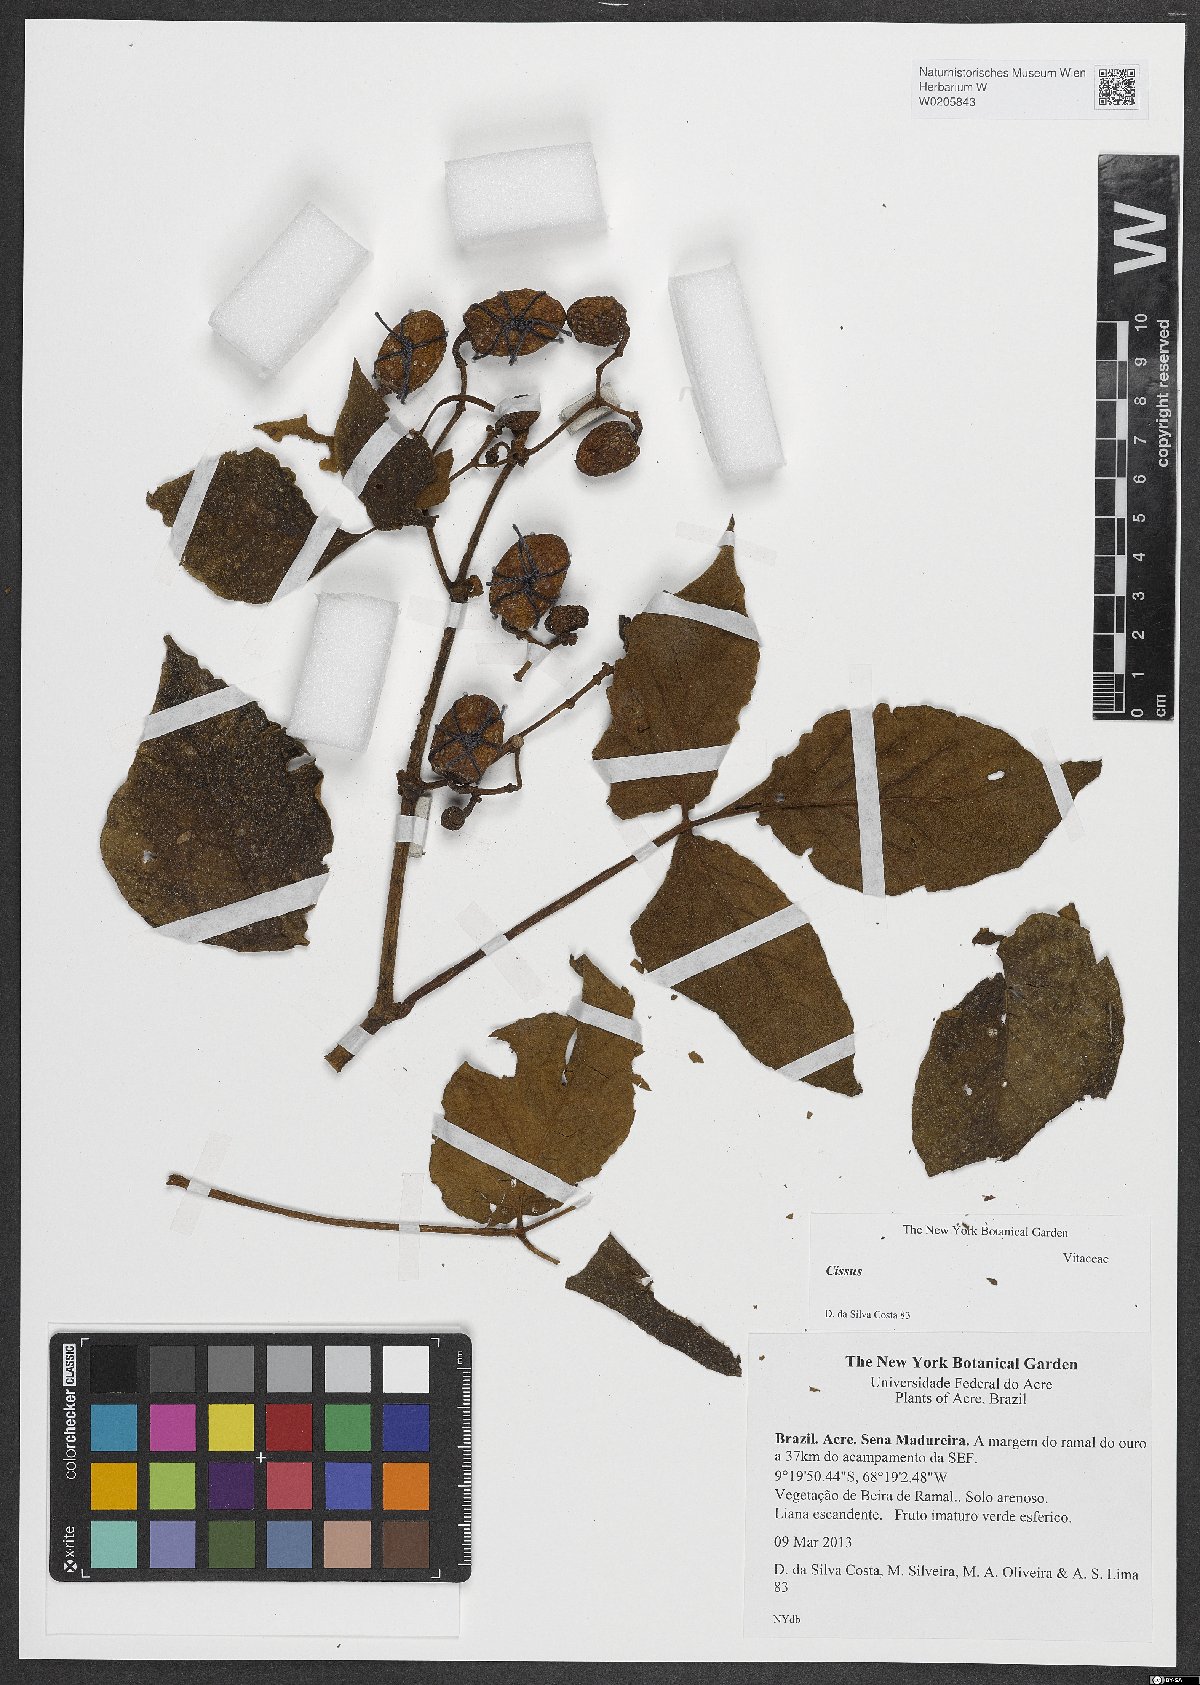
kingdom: Plantae
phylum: Tracheophyta
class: Magnoliopsida
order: Vitales
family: Vitaceae
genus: Cissus
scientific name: Cissus
